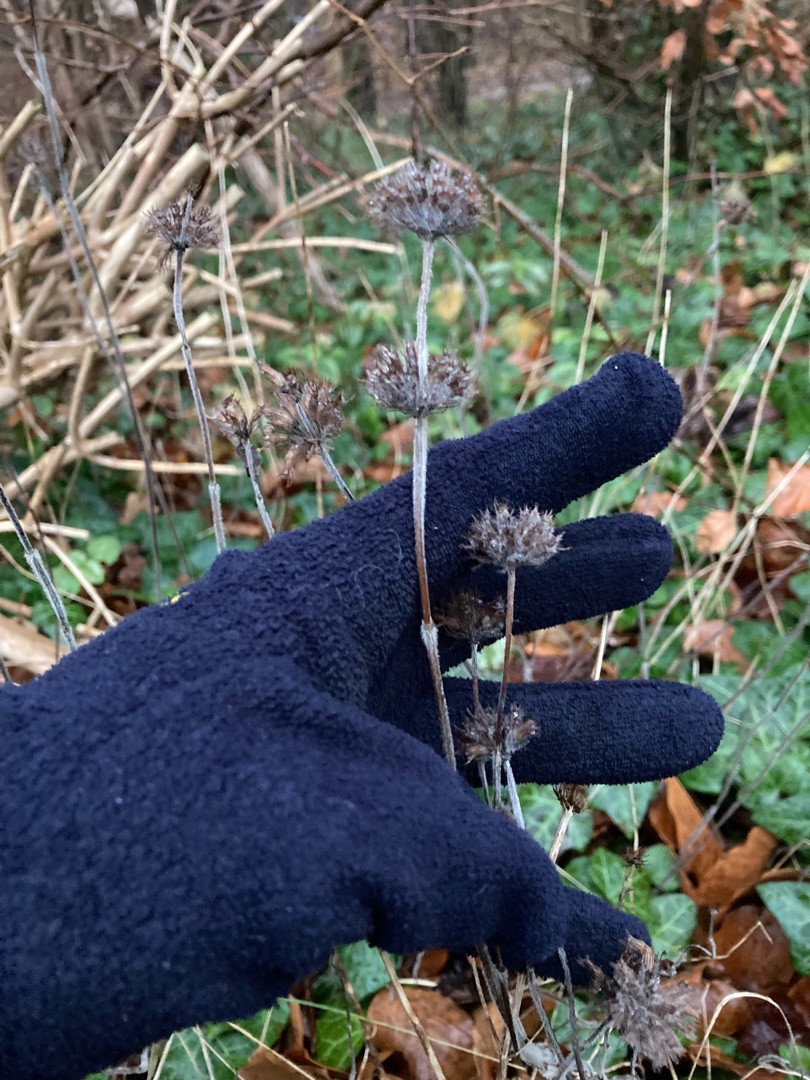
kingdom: Plantae
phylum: Tracheophyta
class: Magnoliopsida
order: Lamiales
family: Lamiaceae
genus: Clinopodium
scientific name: Clinopodium vulgare
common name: Kransbørste
